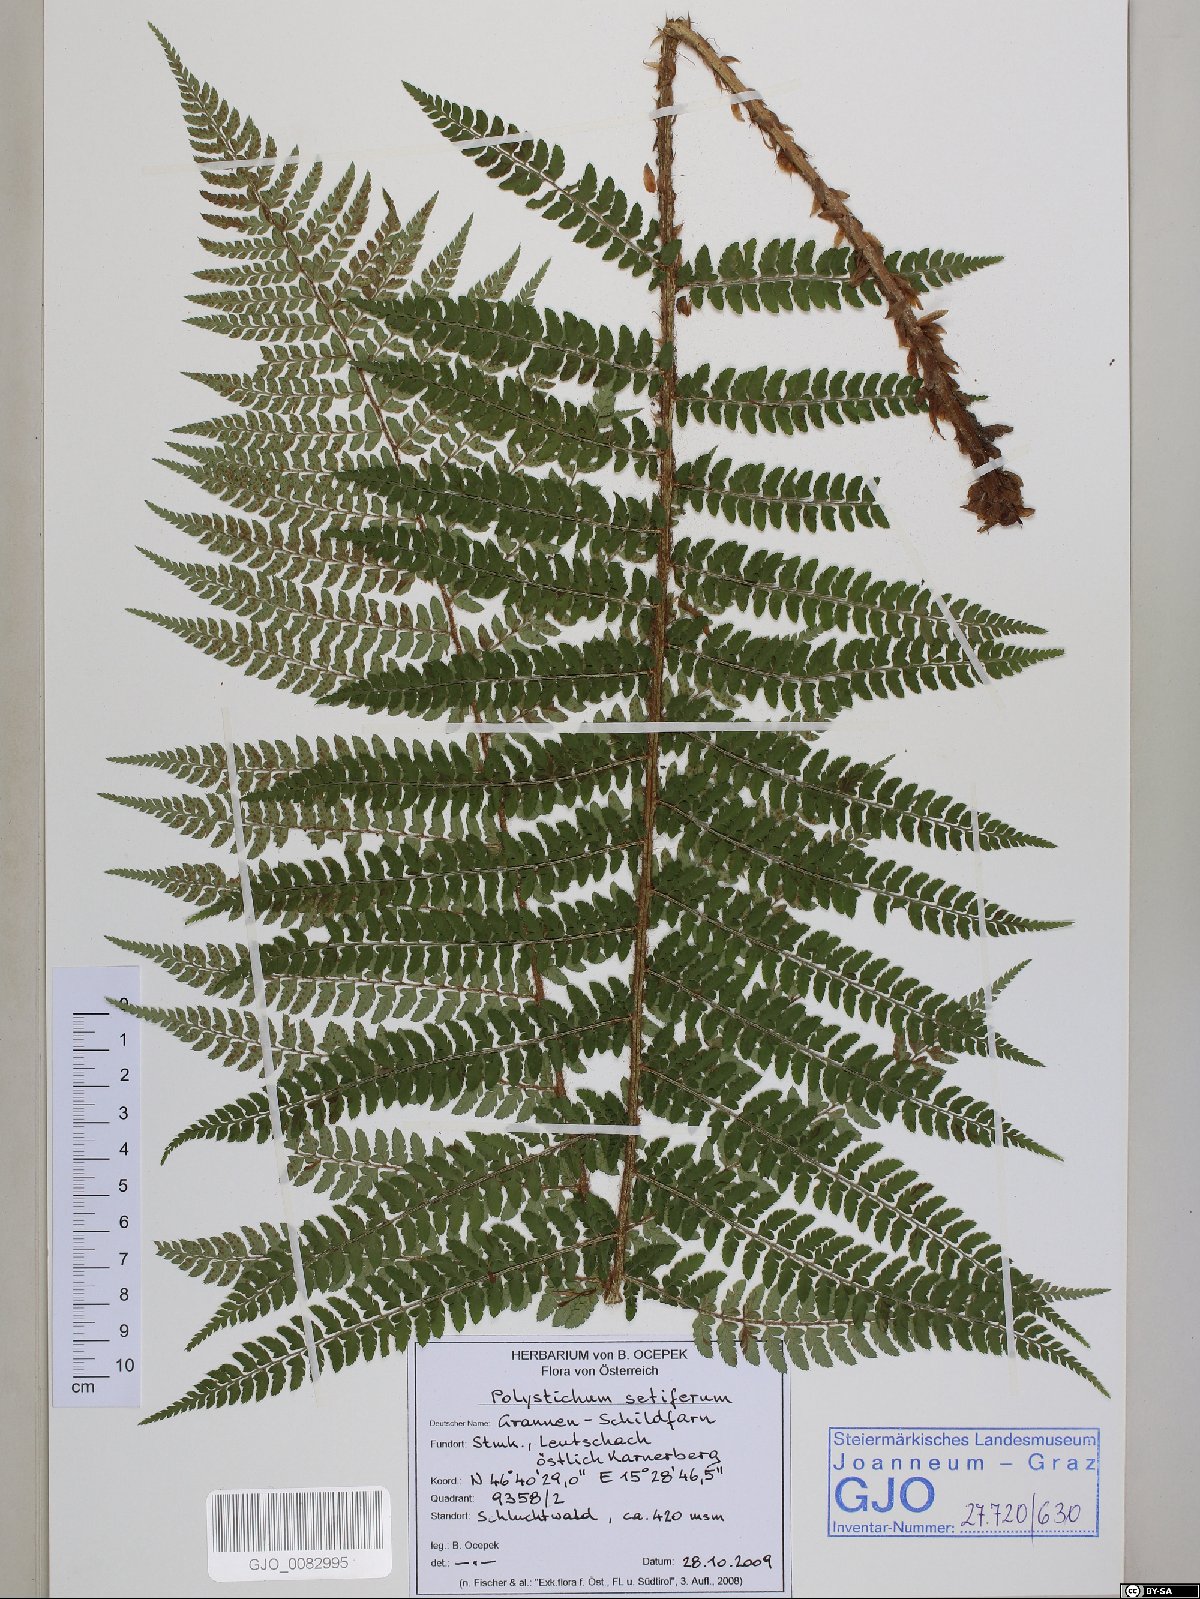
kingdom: Plantae
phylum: Tracheophyta
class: Polypodiopsida
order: Polypodiales
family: Dryopteridaceae
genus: Polystichum
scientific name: Polystichum setiferum
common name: Soft shield-fern
